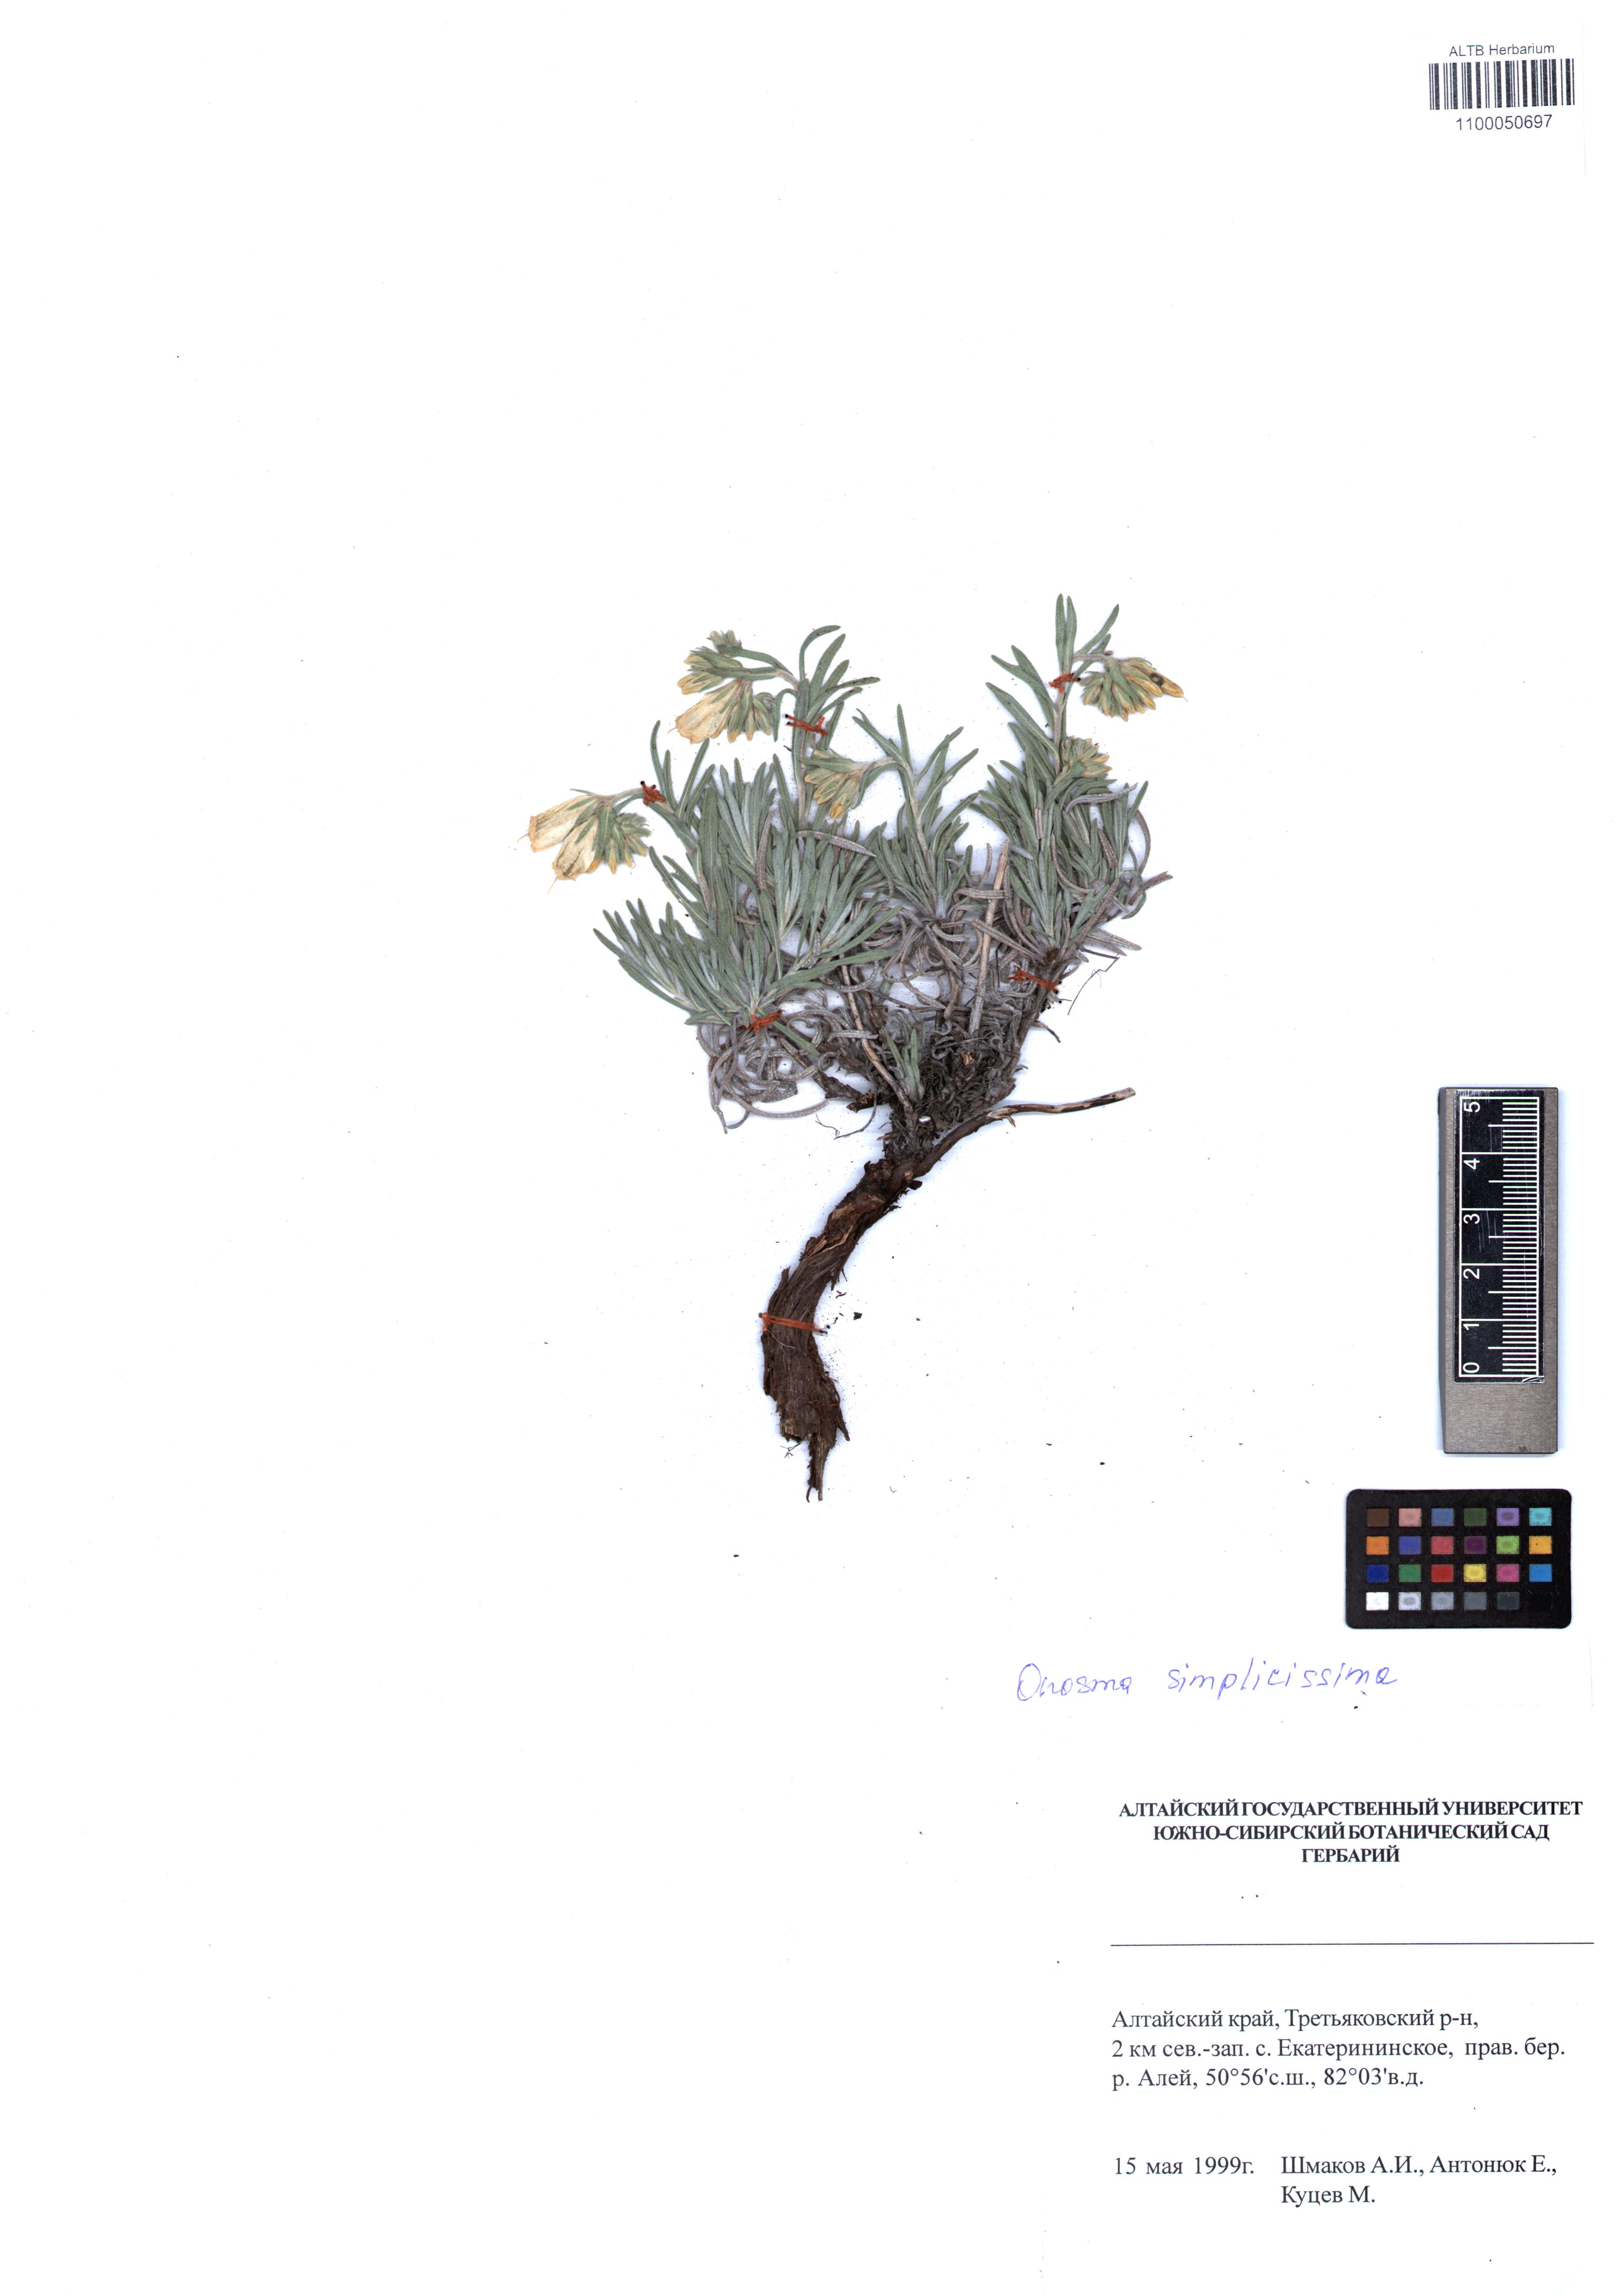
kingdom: Plantae
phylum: Tracheophyta
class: Magnoliopsida
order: Boraginales
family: Boraginaceae
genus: Onosma
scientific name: Onosma simplicissima
